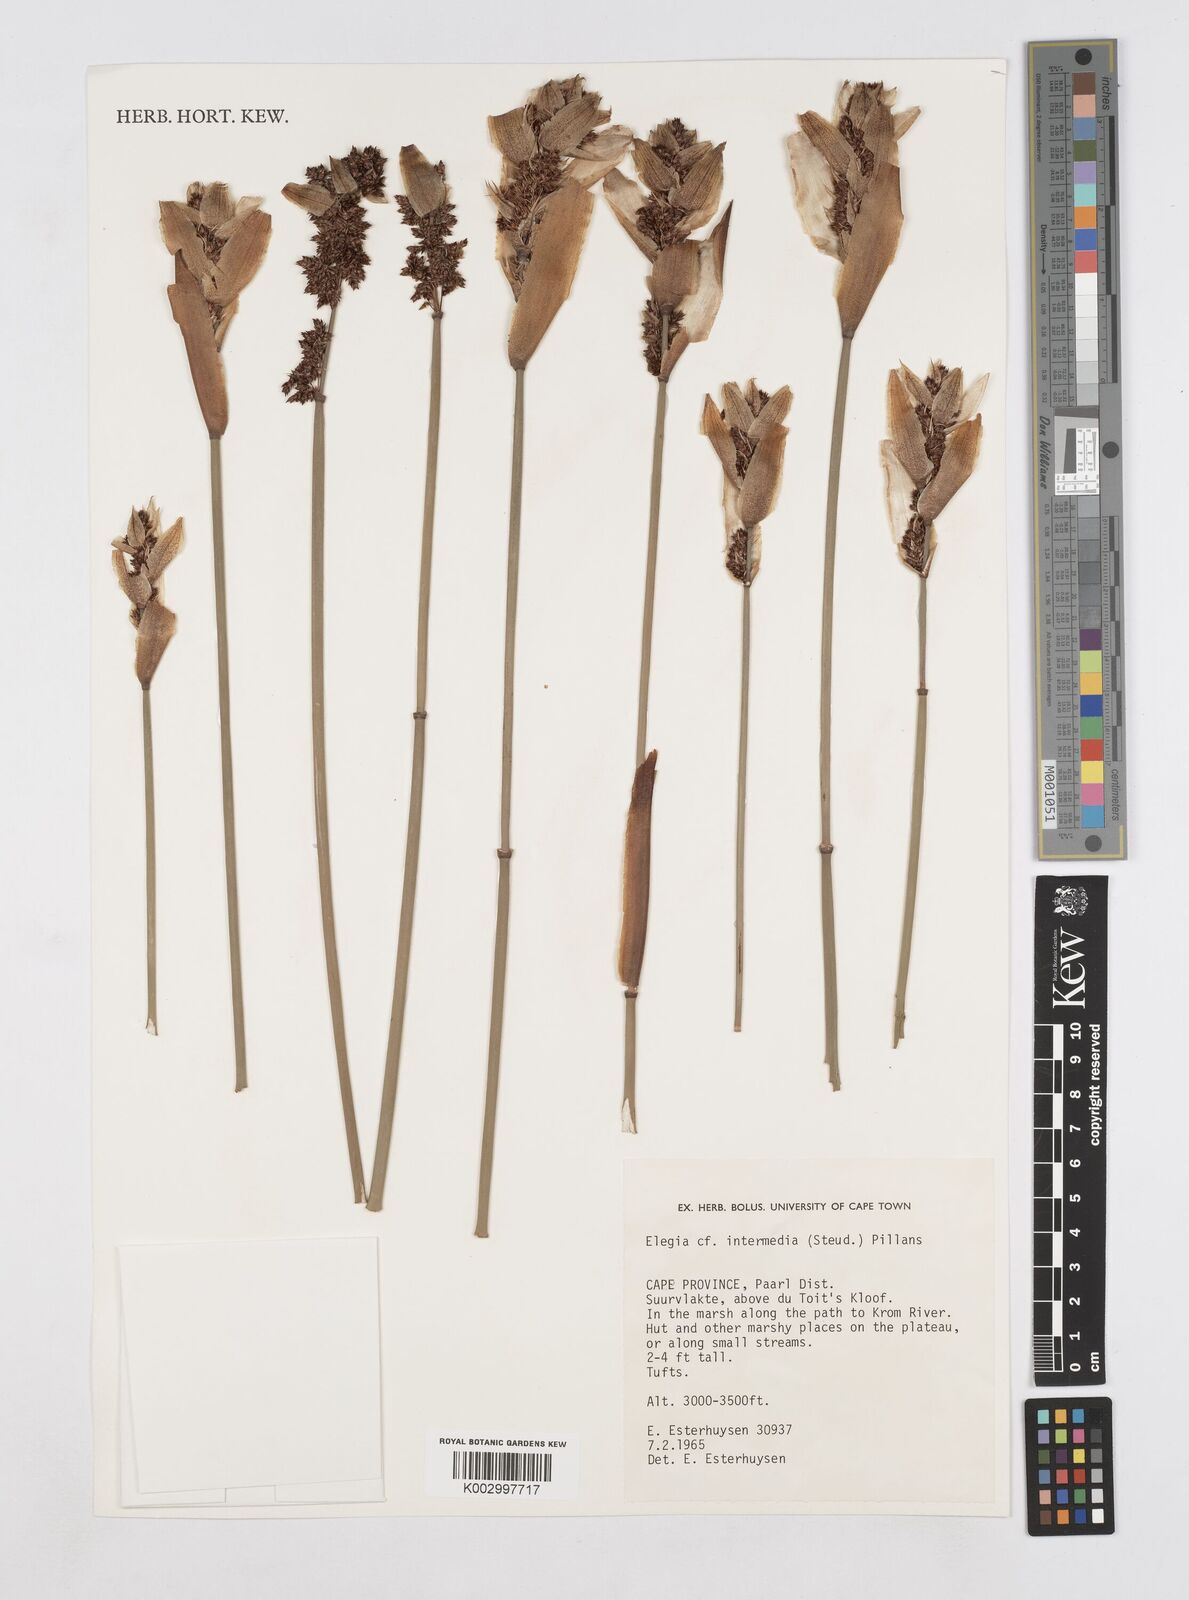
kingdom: Plantae
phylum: Tracheophyta
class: Liliopsida
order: Poales
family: Restionaceae
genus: Elegia
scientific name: Elegia intermedia
